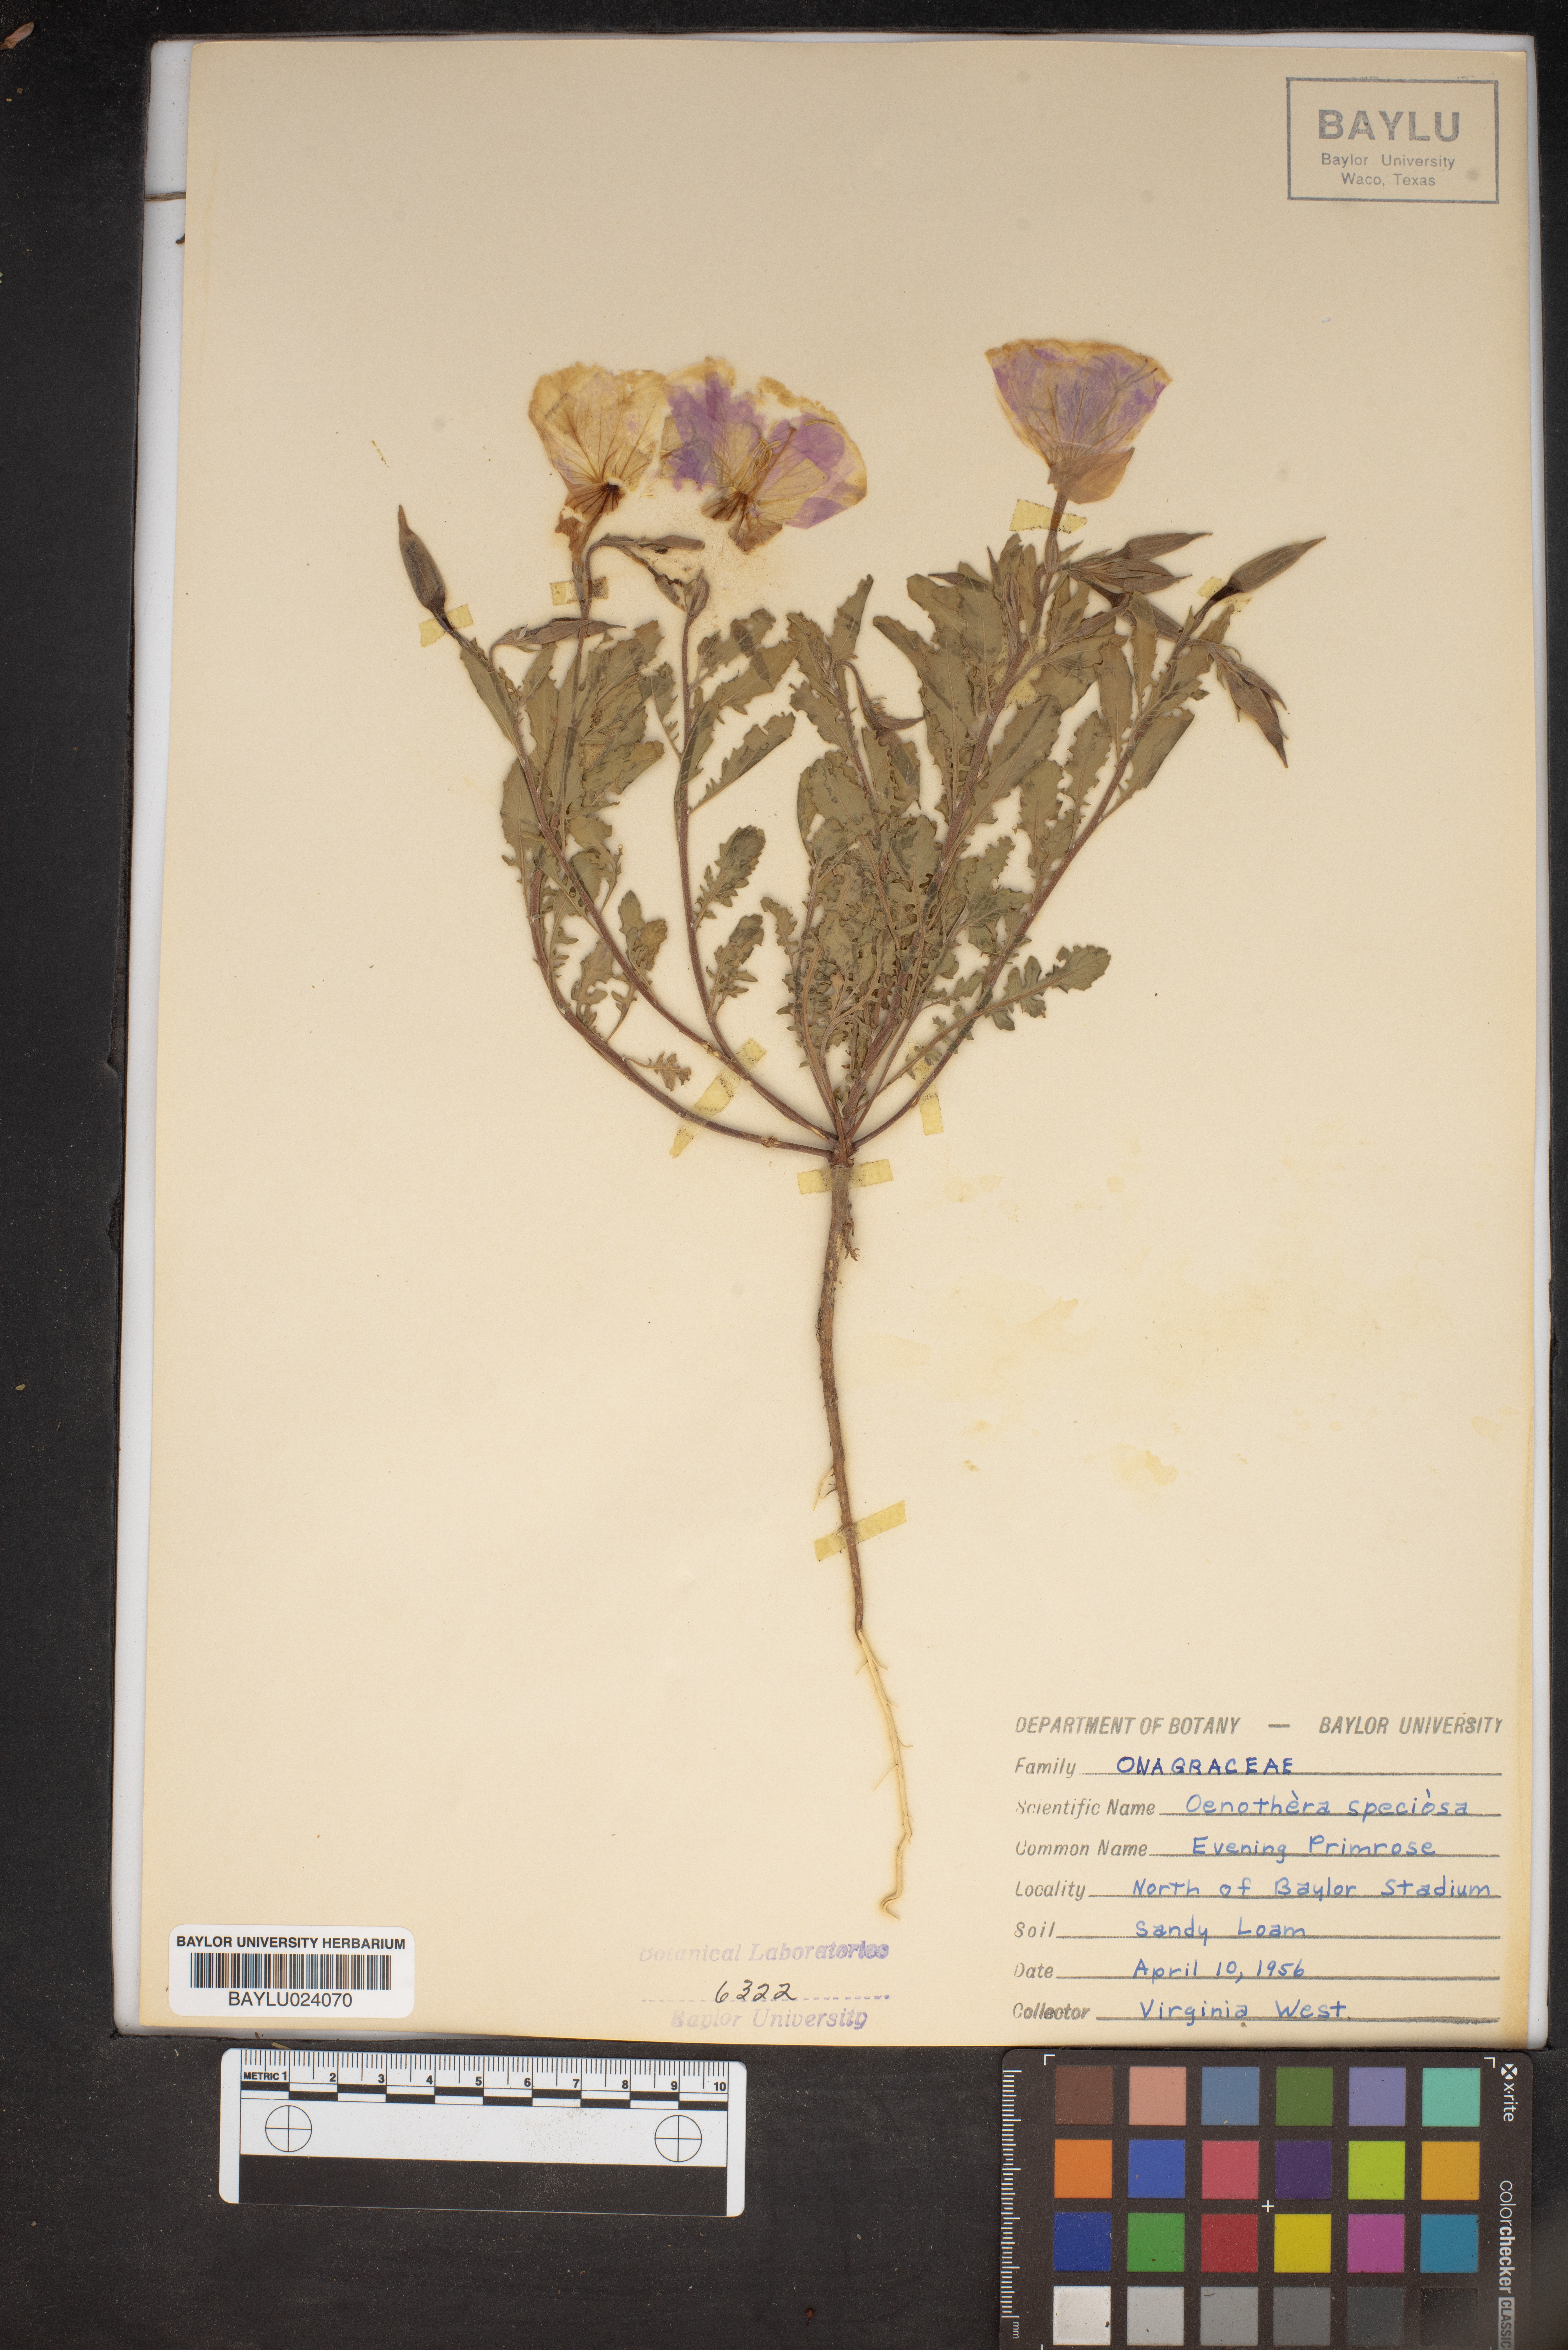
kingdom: Plantae
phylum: Tracheophyta
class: Magnoliopsida
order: Myrtales
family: Onagraceae
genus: Oenothera
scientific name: Oenothera speciosa
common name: White evening-primrose
